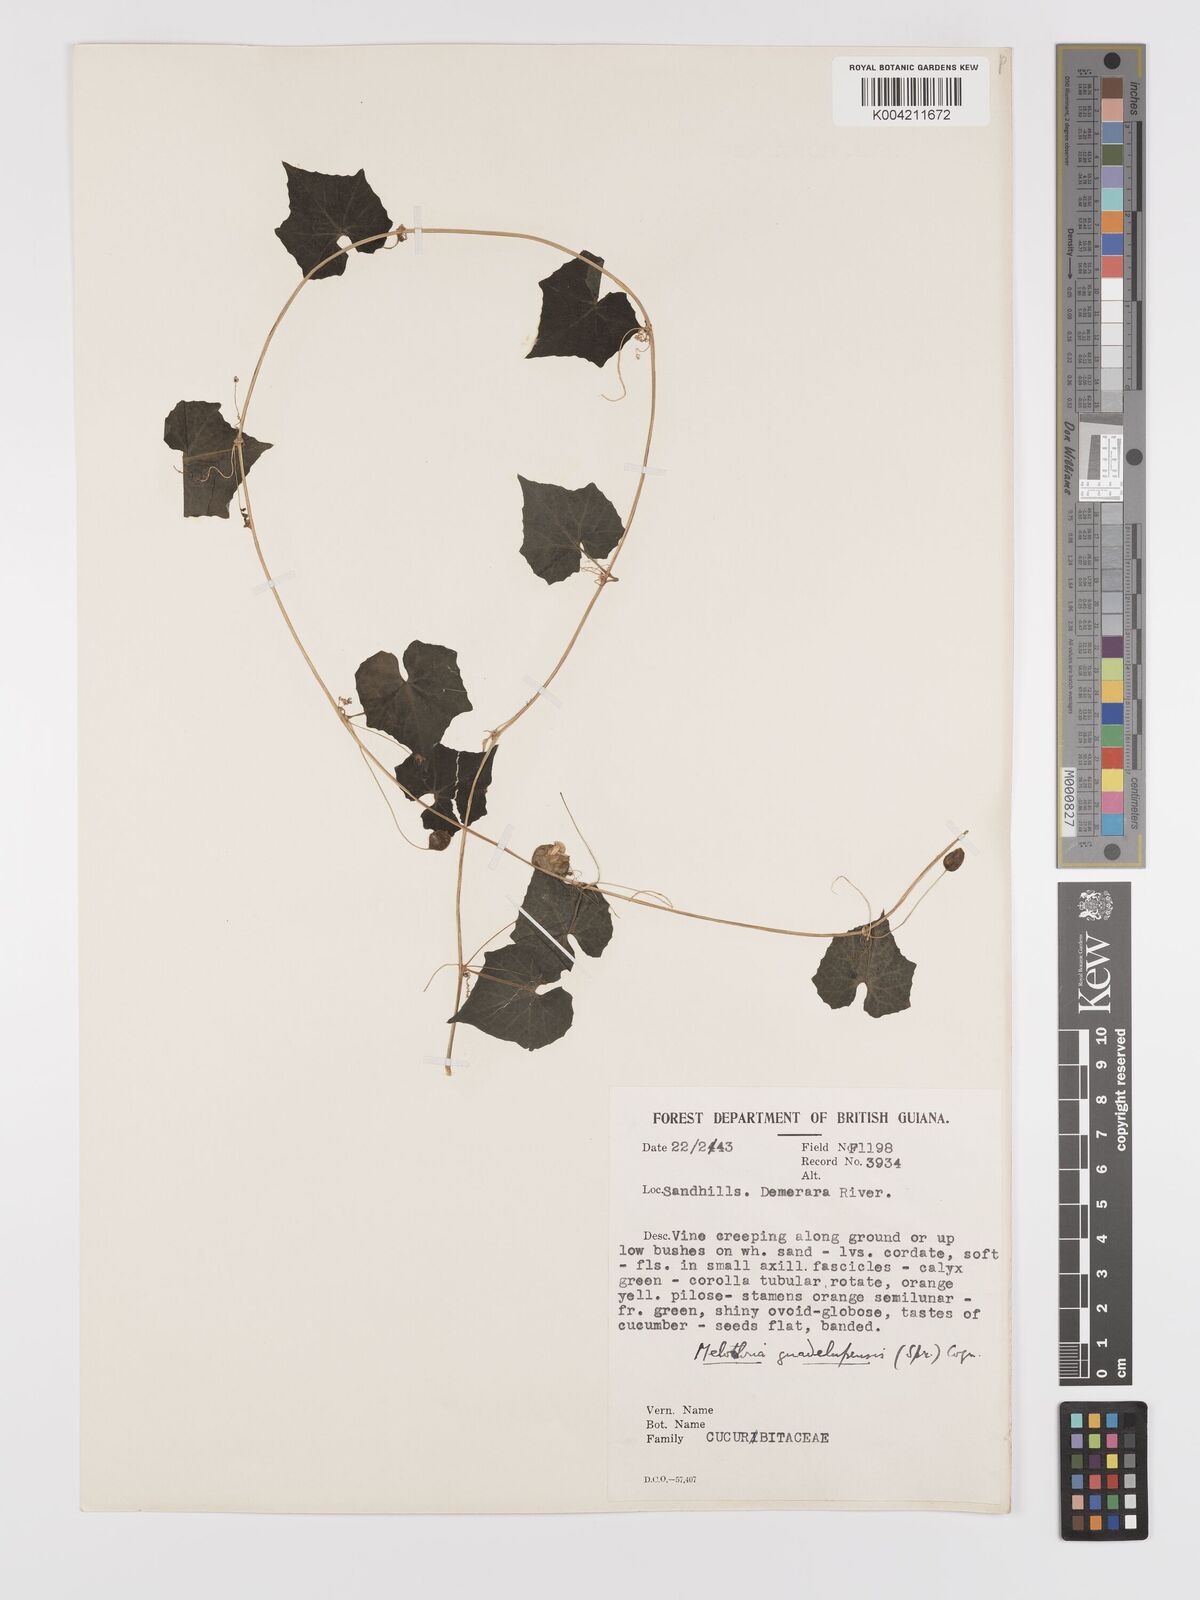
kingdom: Plantae
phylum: Tracheophyta
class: Magnoliopsida
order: Cucurbitales
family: Cucurbitaceae
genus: Melothria
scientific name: Melothria pendula
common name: Creeping-cucumber
